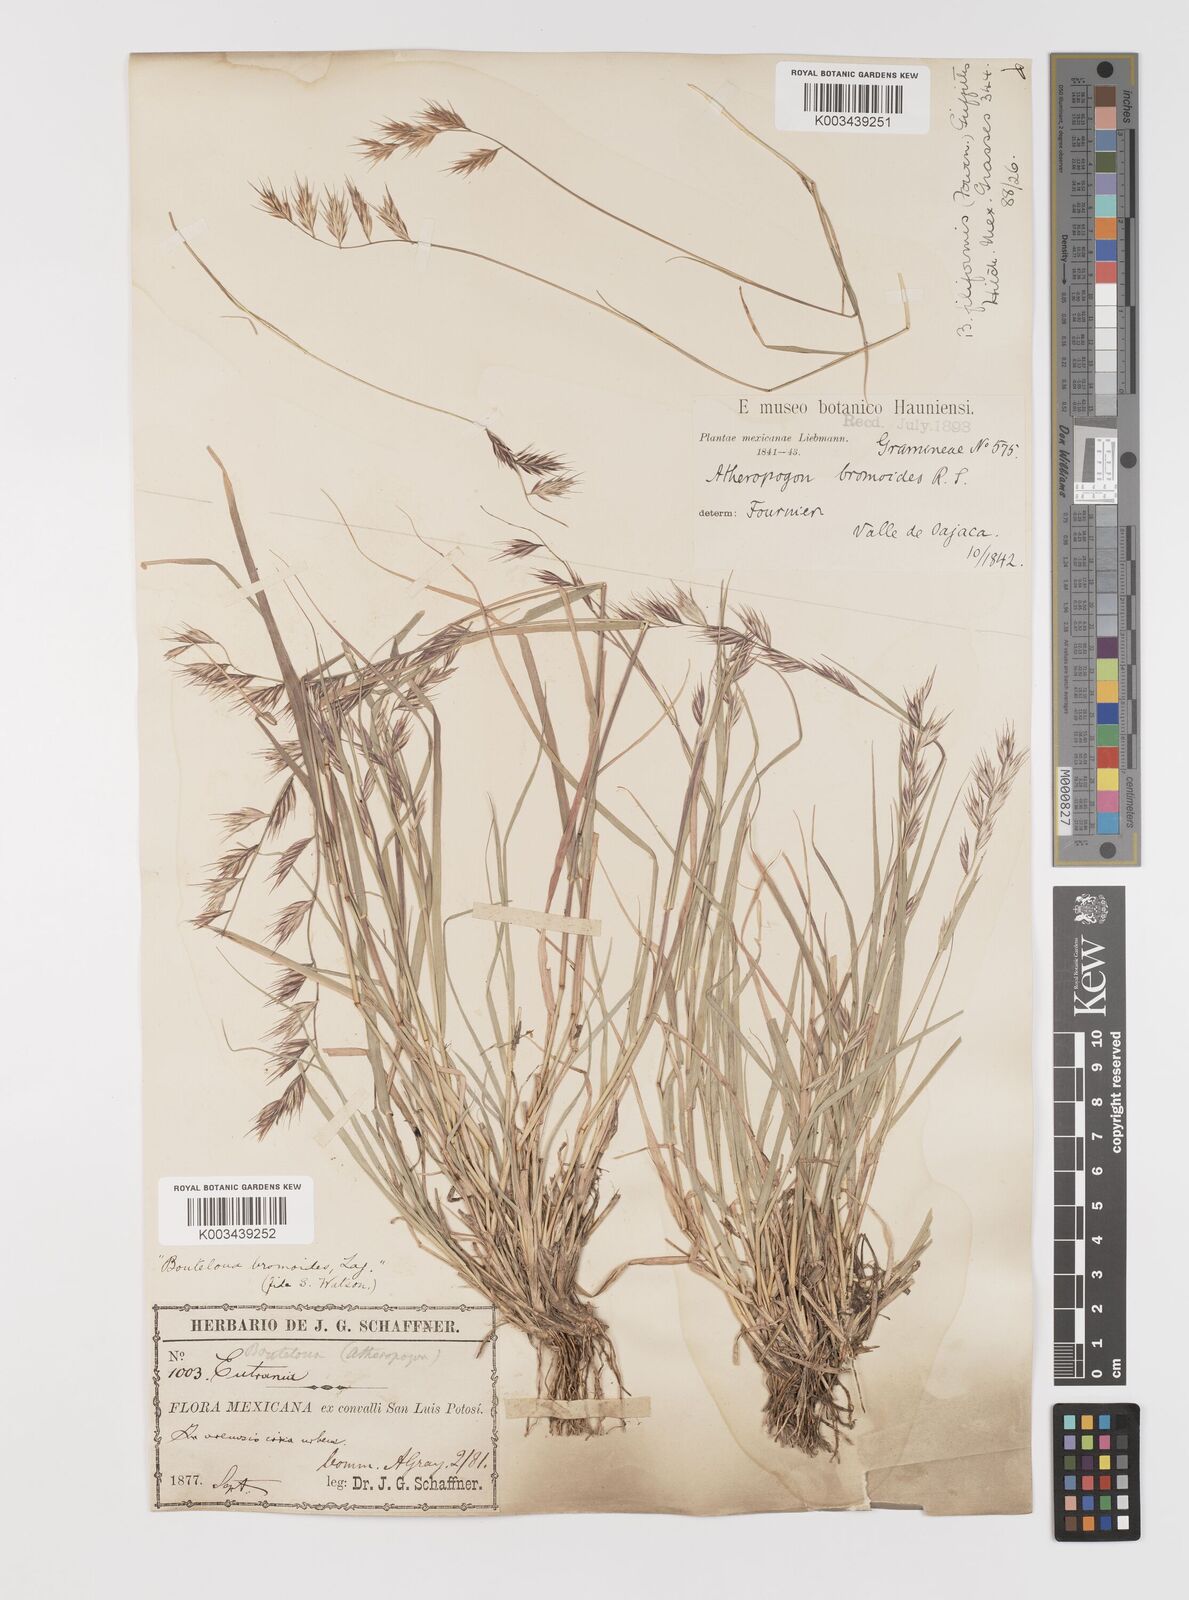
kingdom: Plantae
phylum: Tracheophyta
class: Liliopsida
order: Poales
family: Poaceae
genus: Bouteloua
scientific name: Bouteloua repens
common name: Slender grama
